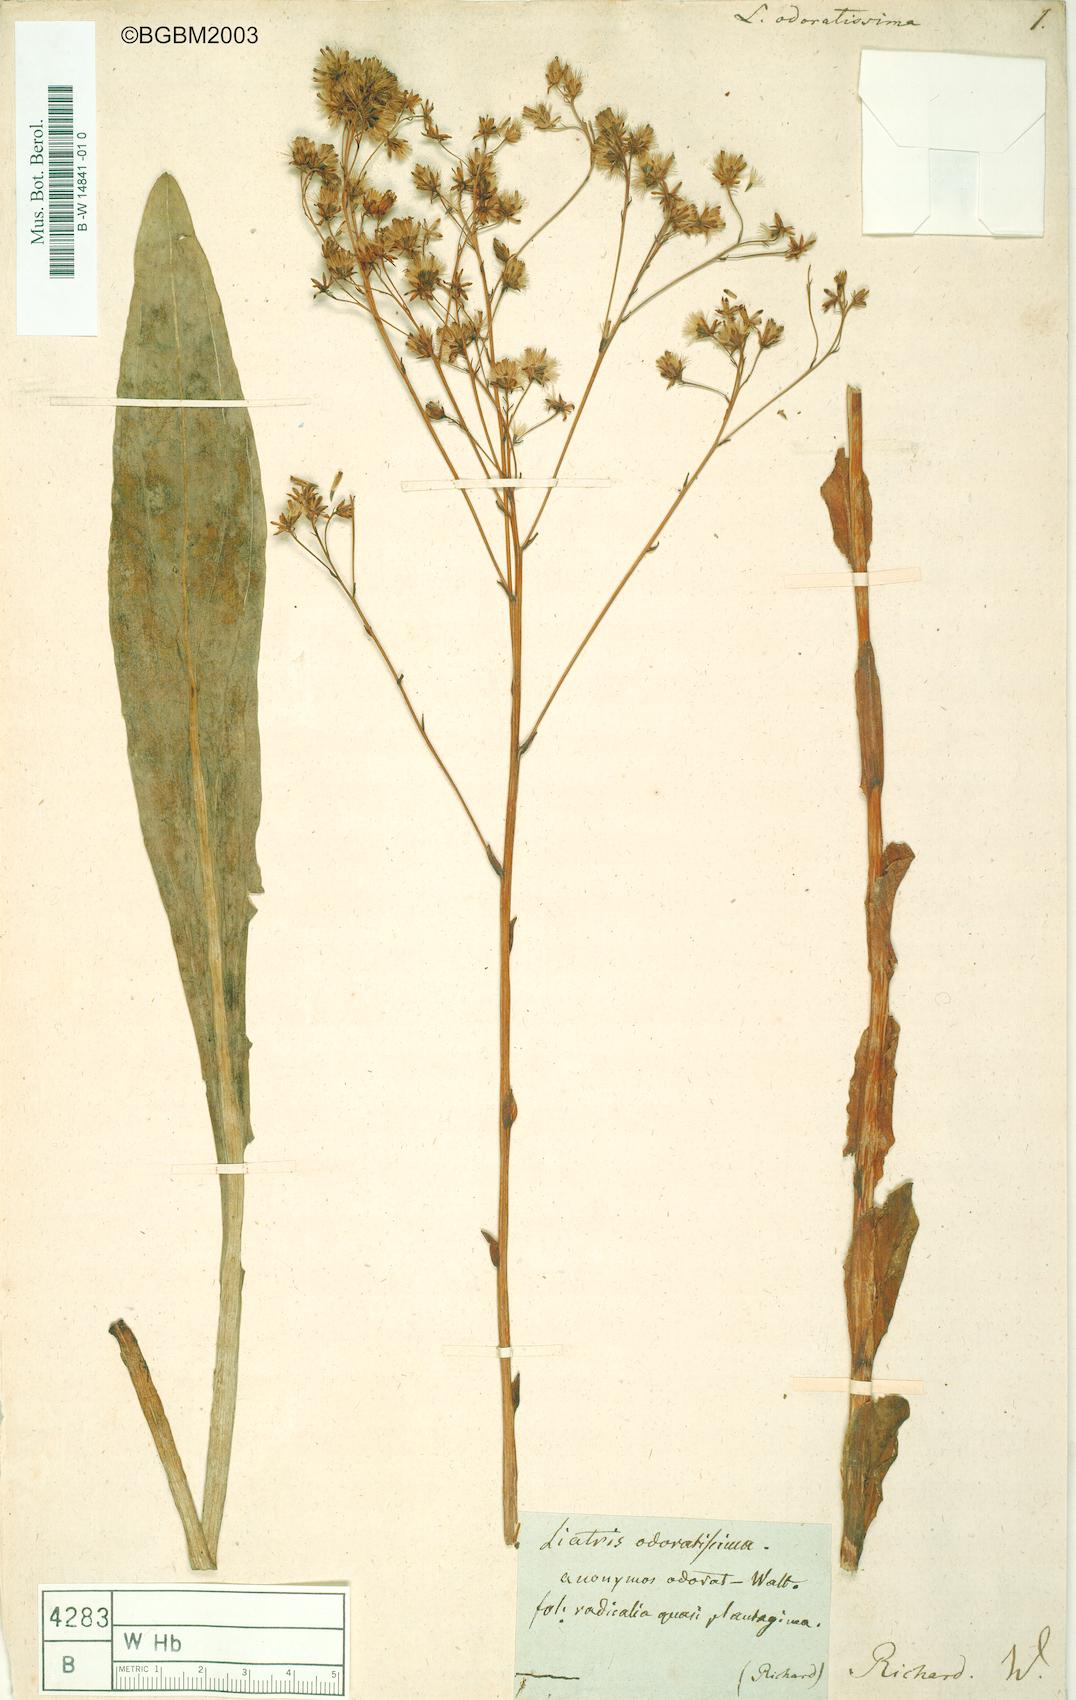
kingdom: Plantae
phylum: Tracheophyta
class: Magnoliopsida
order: Asterales
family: Asteraceae
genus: Carphephorus
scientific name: Carphephorus odoratissimus
